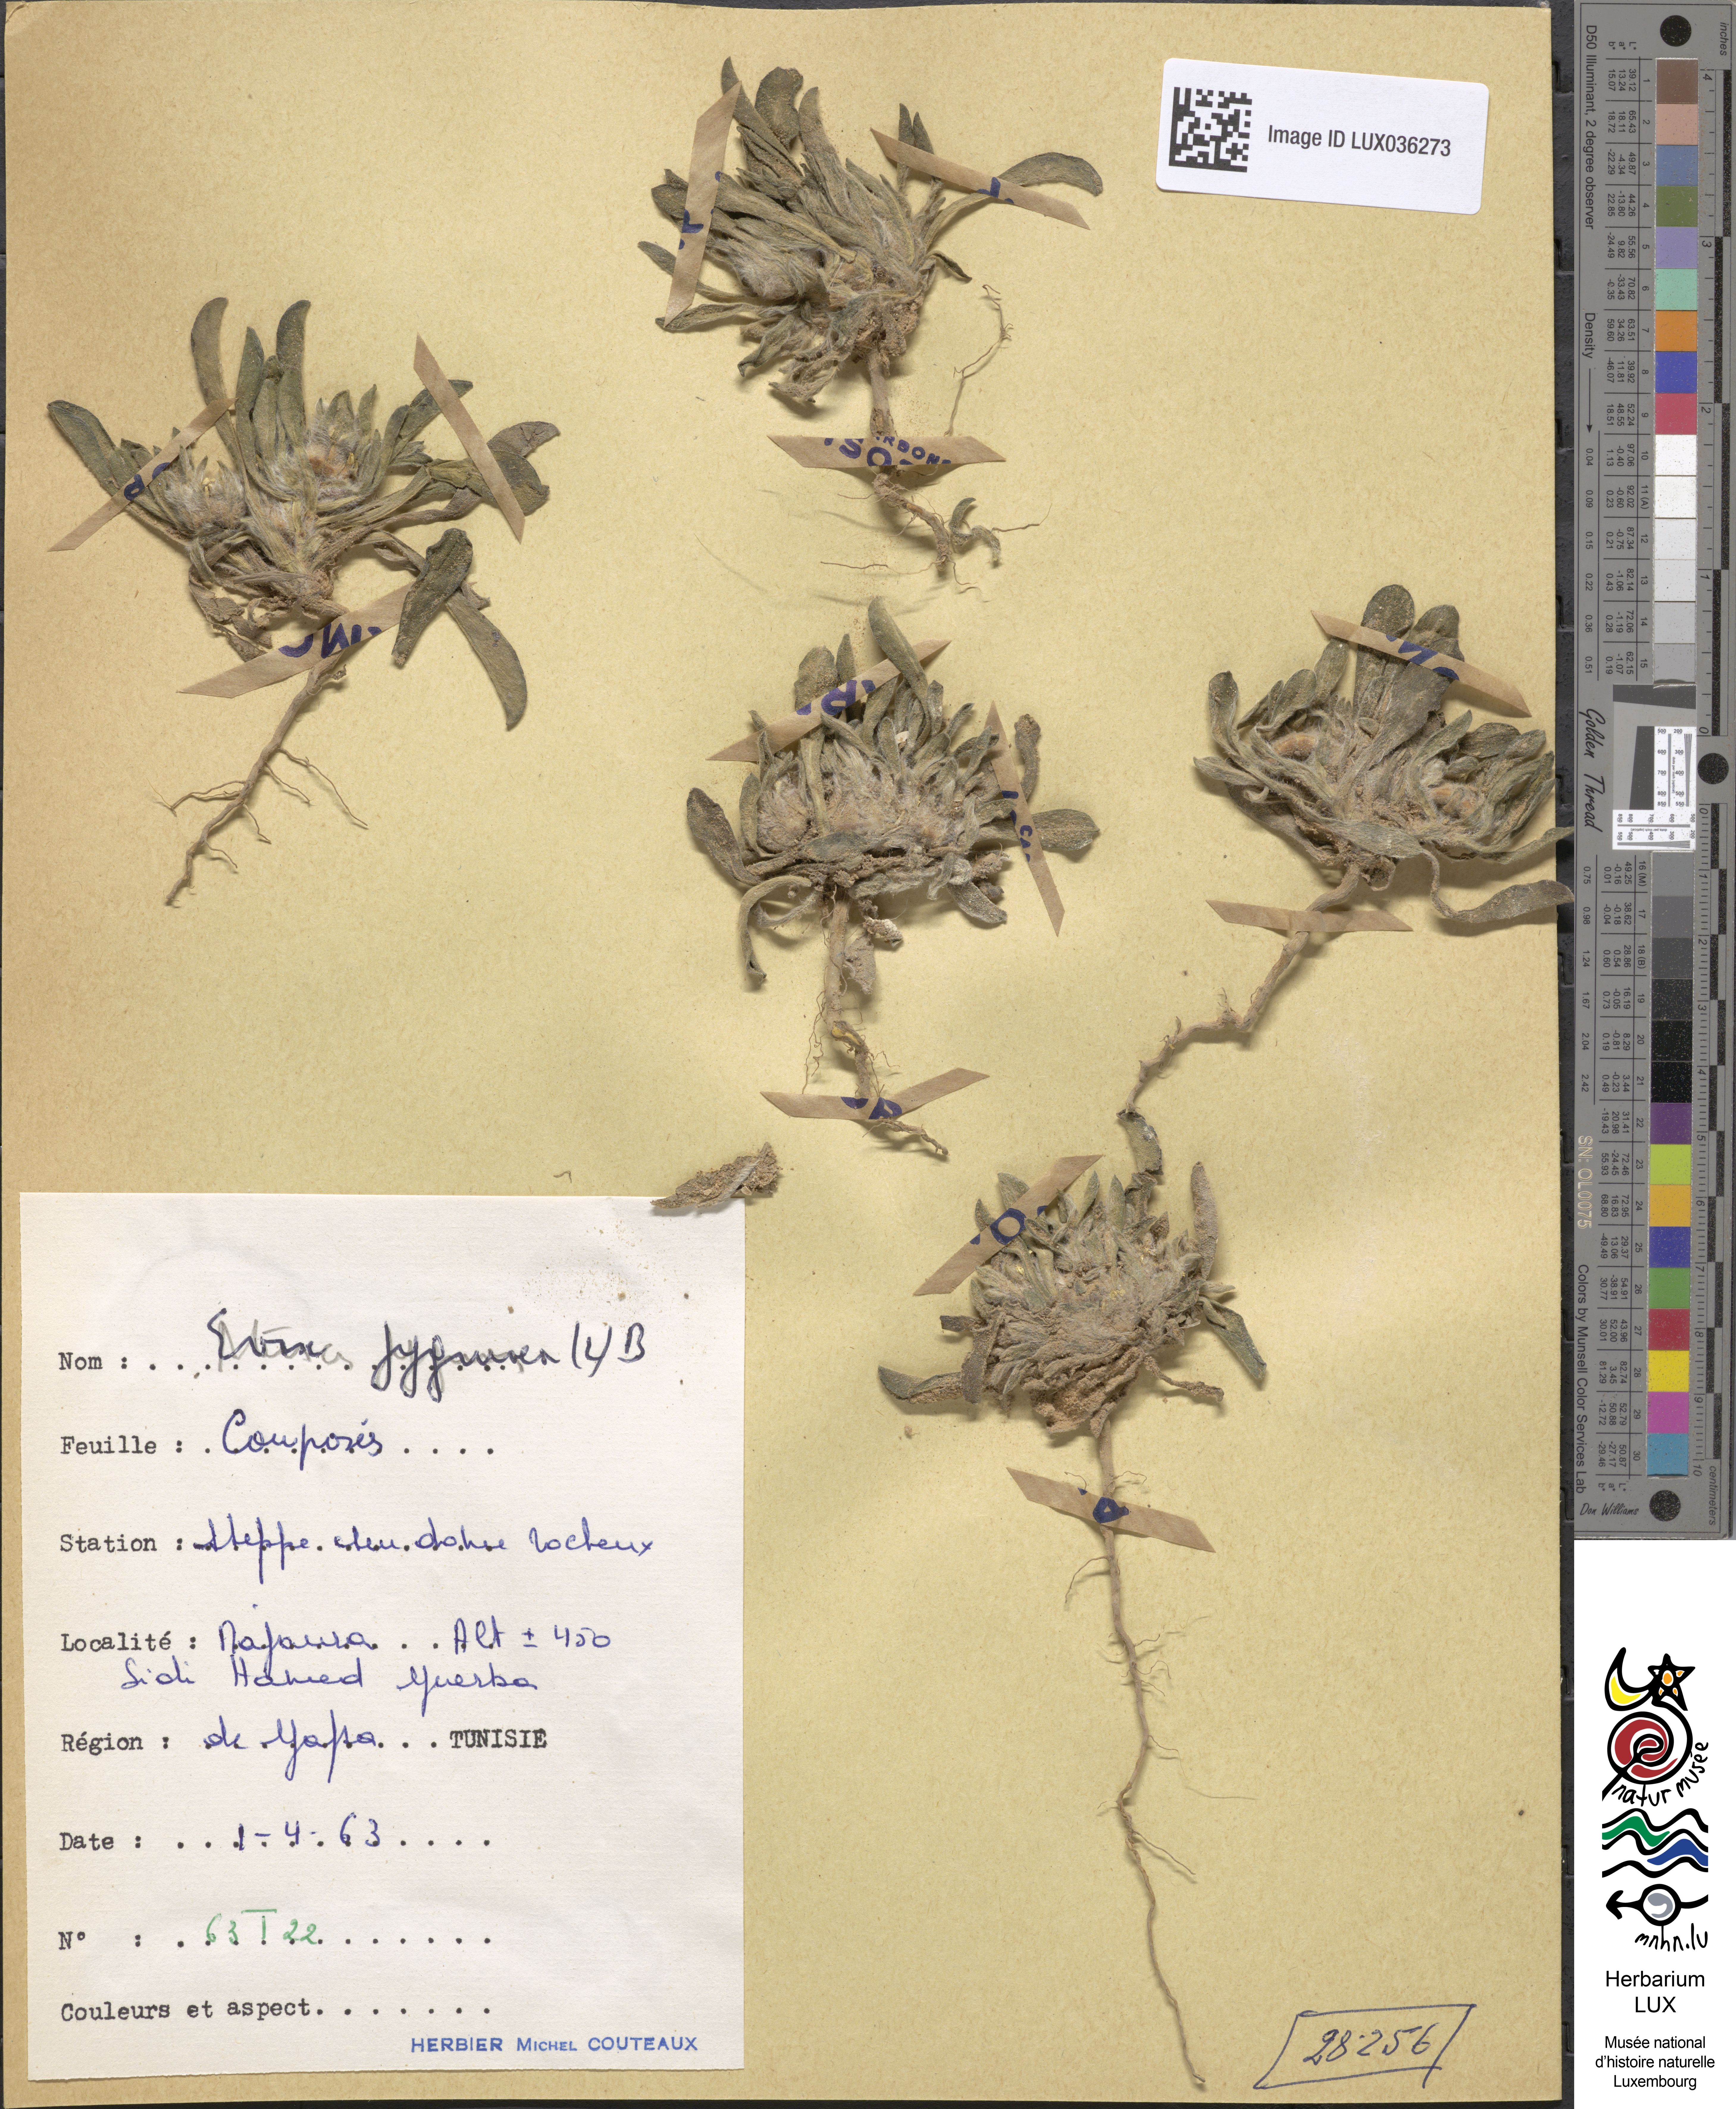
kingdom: Plantae
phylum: Tracheophyta
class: Magnoliopsida
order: Asterales
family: Asteraceae
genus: Filago
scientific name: Filago pygmaea
